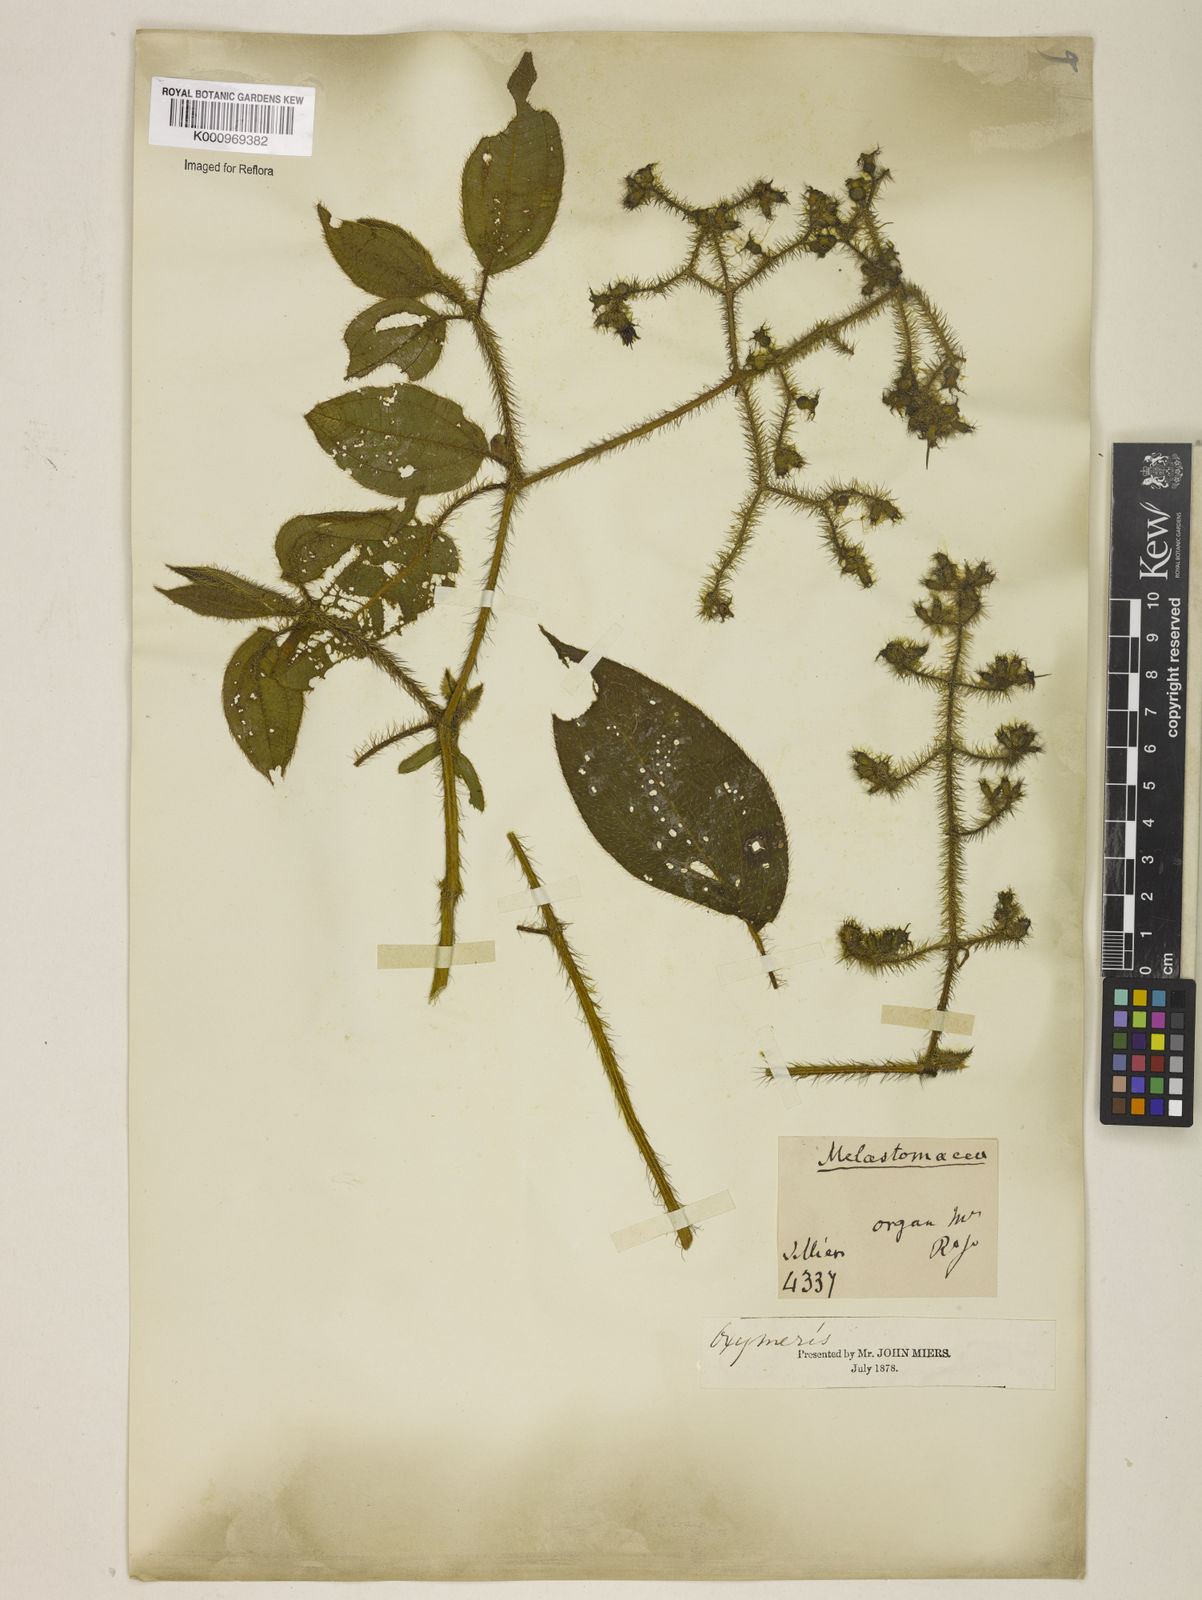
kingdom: Plantae
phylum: Tracheophyta
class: Magnoliopsida
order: Myrtales
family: Melastomataceae
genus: Miconia
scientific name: Miconia xantholasia
